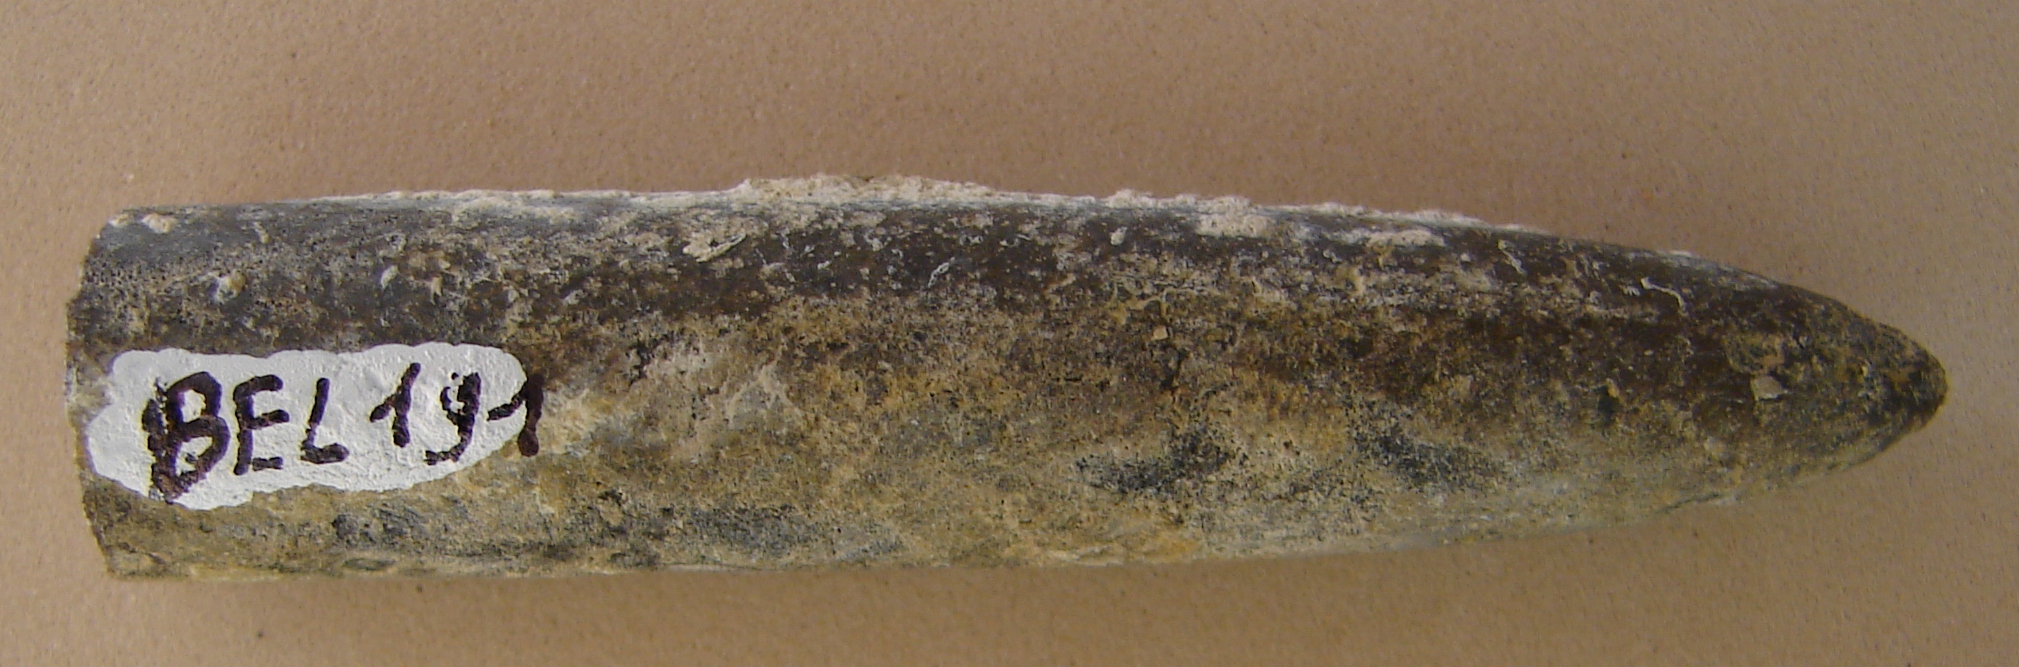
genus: Pachybelemnopsis
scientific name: Pachybelemnopsis
